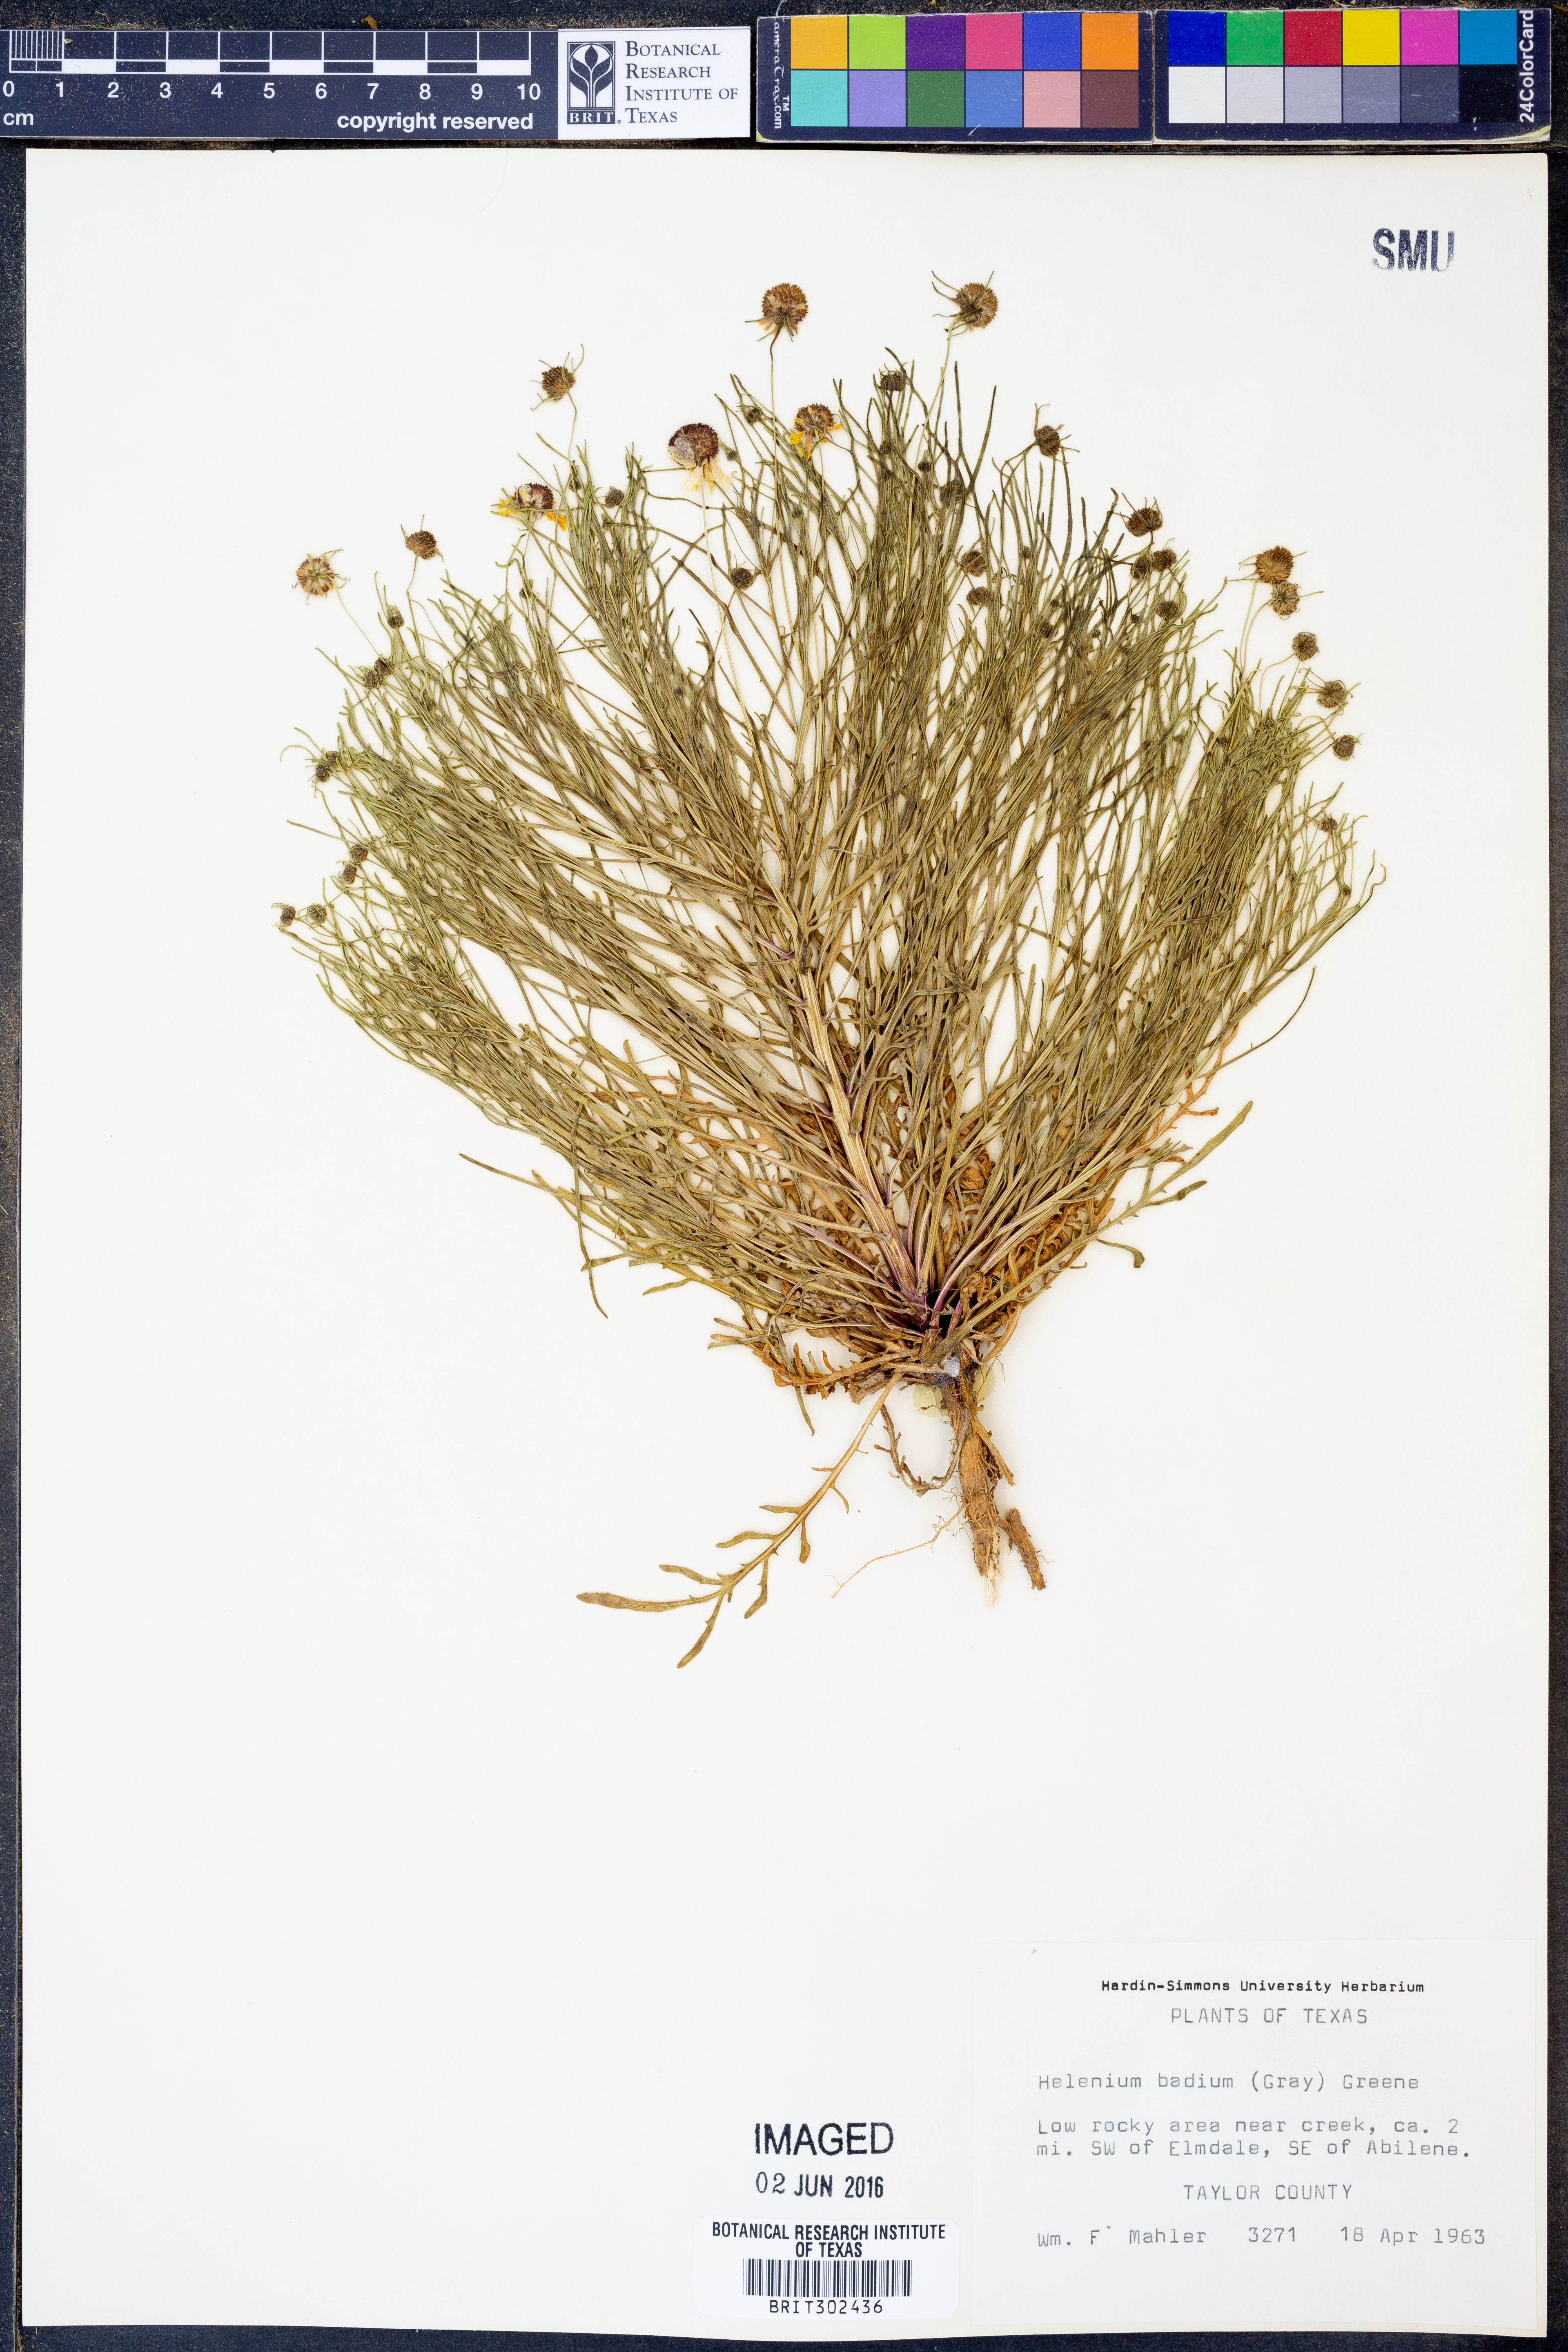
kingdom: Plantae
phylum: Tracheophyta
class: Magnoliopsida
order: Asterales
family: Asteraceae
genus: Helenium
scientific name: Helenium amarum
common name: Bitter sneezeweed
